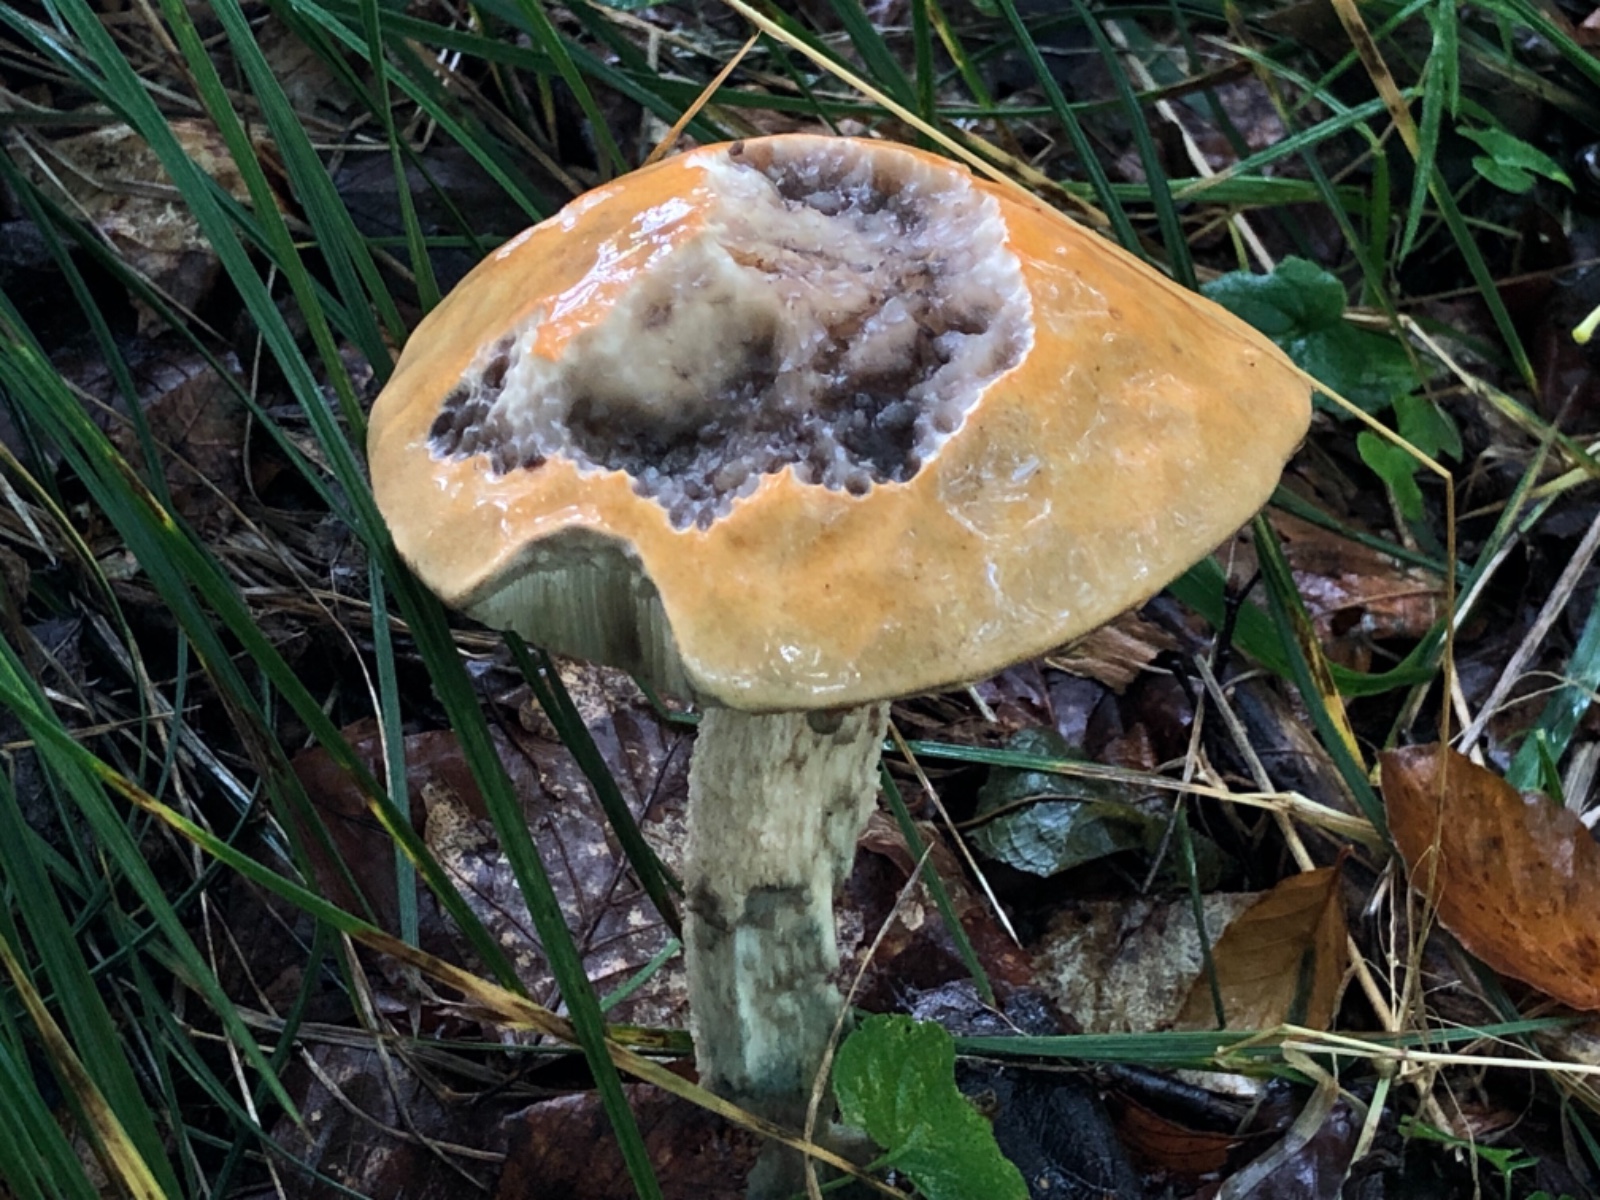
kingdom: Fungi
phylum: Basidiomycota
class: Agaricomycetes
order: Boletales
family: Boletaceae
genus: Leccinum
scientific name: Leccinum
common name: skælrørhat
